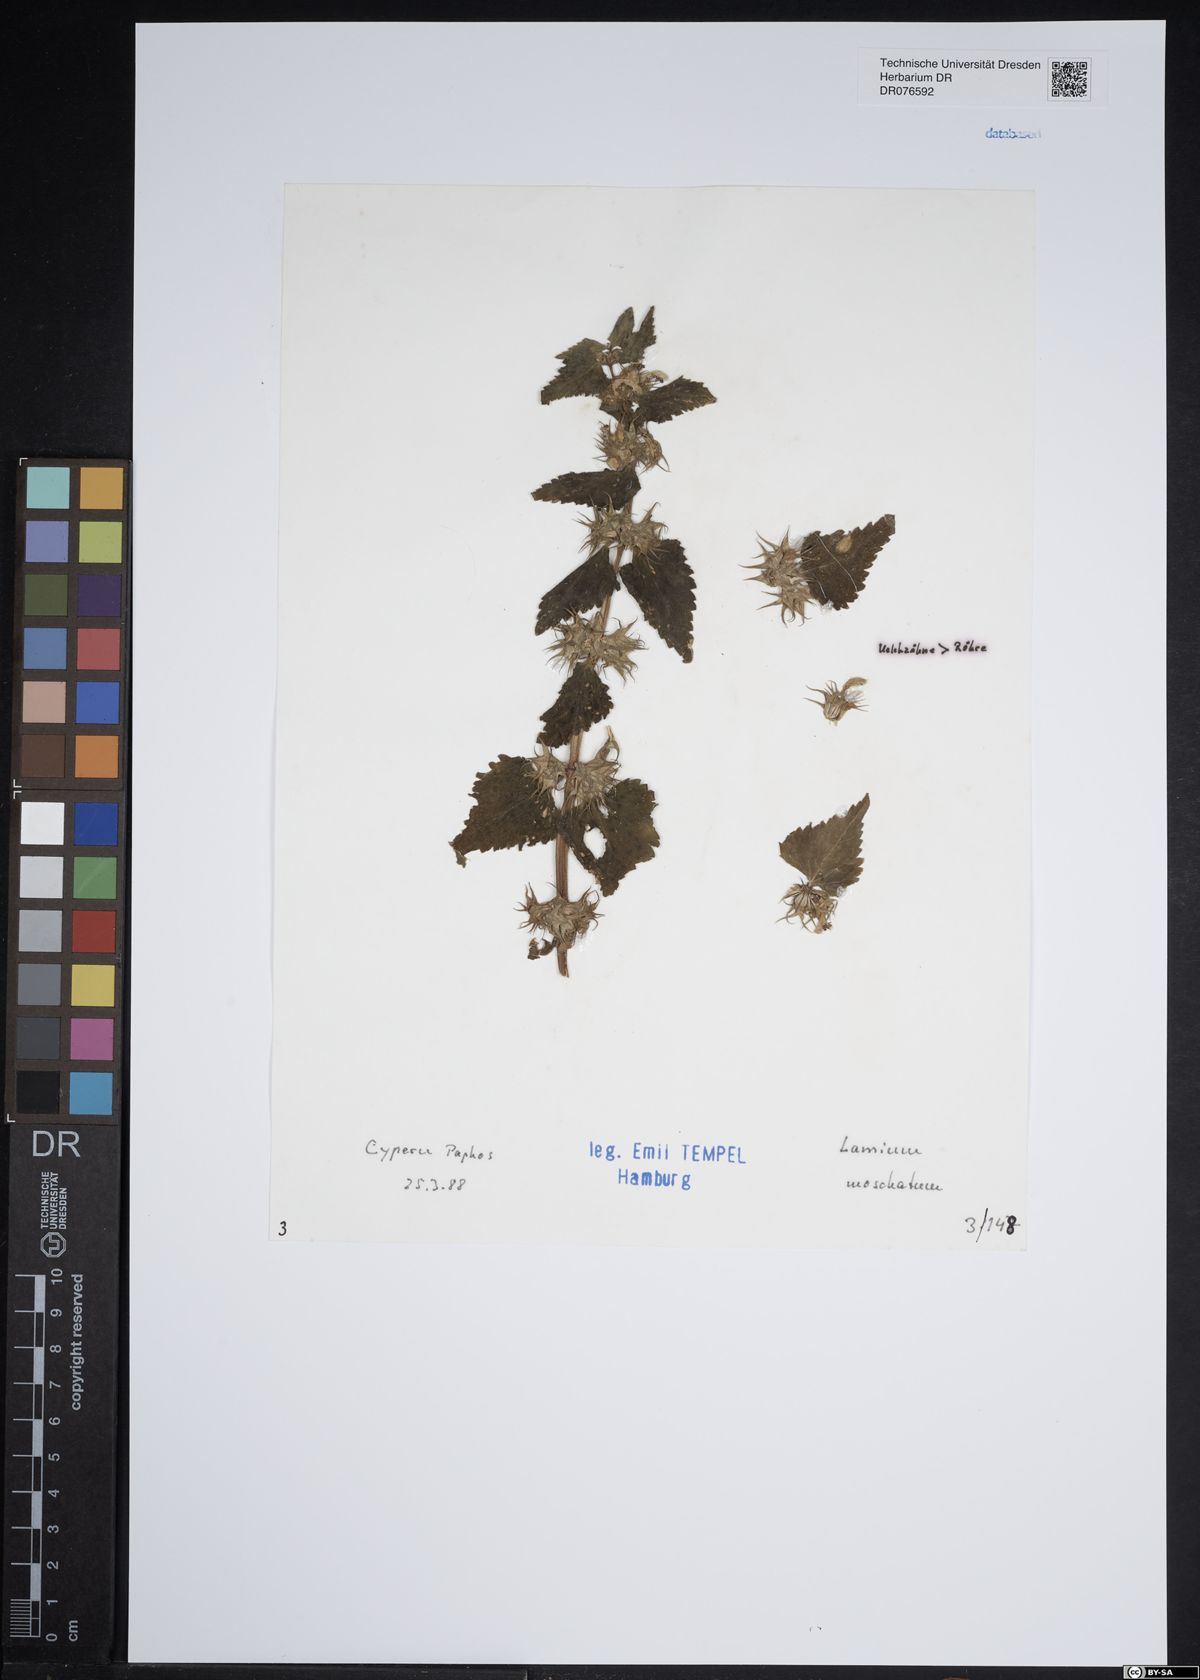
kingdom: Plantae
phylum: Tracheophyta
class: Magnoliopsida
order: Lamiales
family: Lamiaceae
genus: Lamium
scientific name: Lamium moschatum
